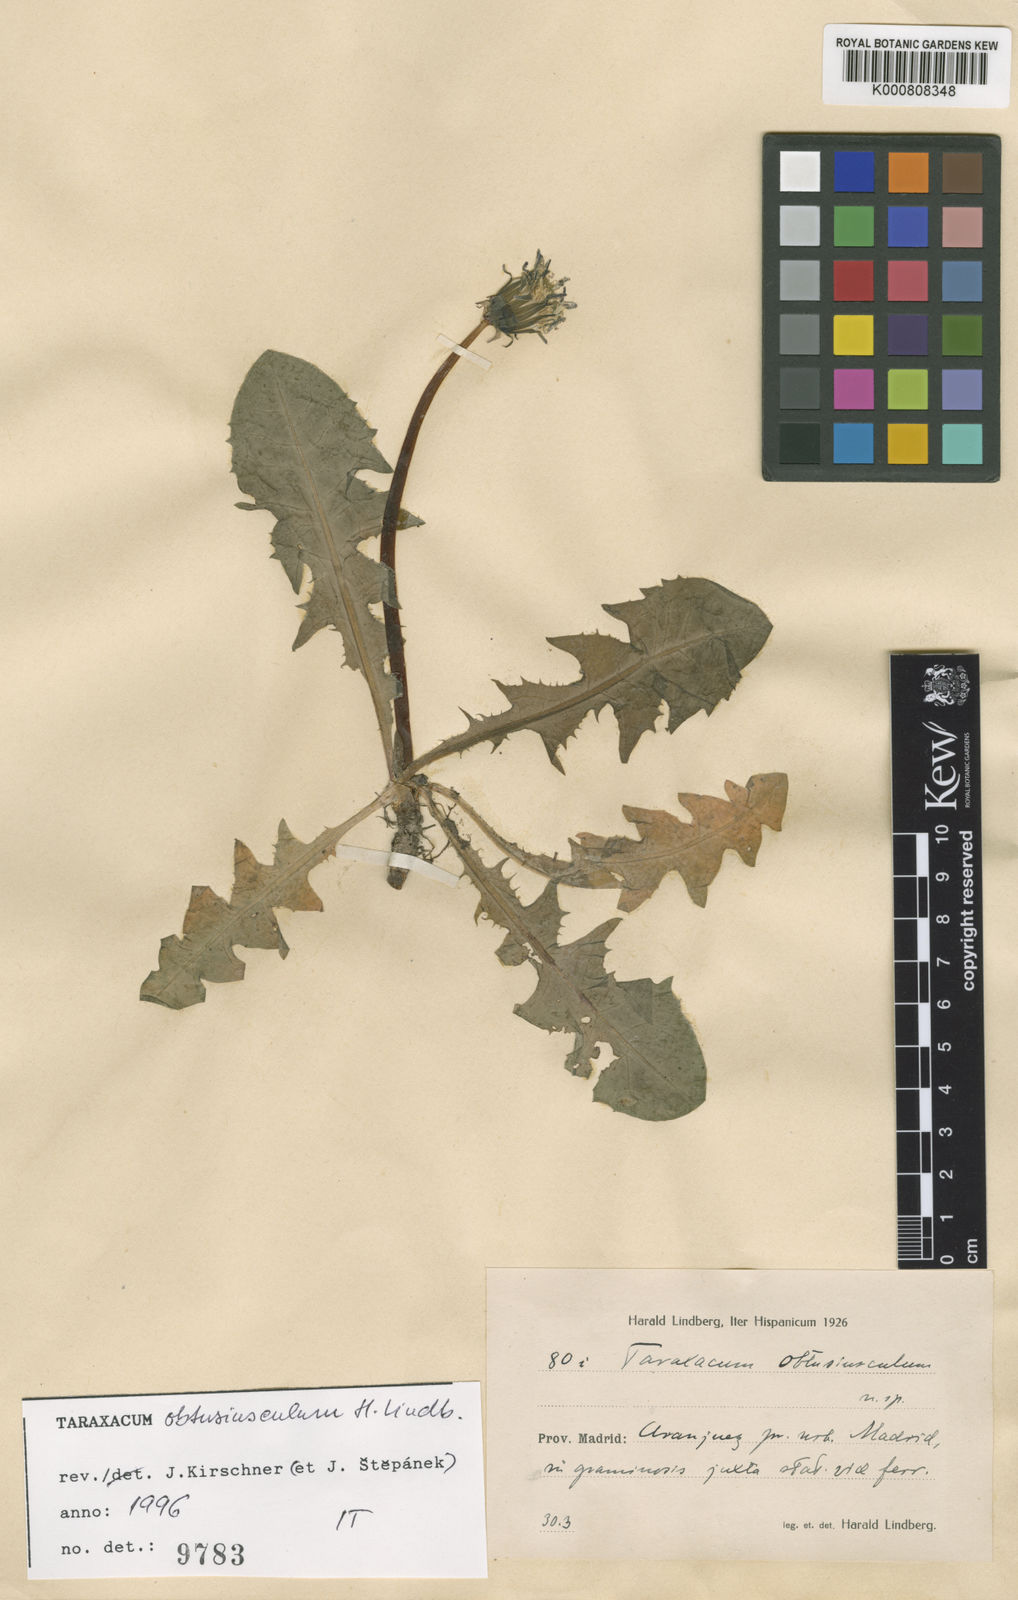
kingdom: Plantae
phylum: Tracheophyta
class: Magnoliopsida
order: Asterales
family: Asteraceae
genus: Taraxacum
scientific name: Taraxacum obtusiusculum
